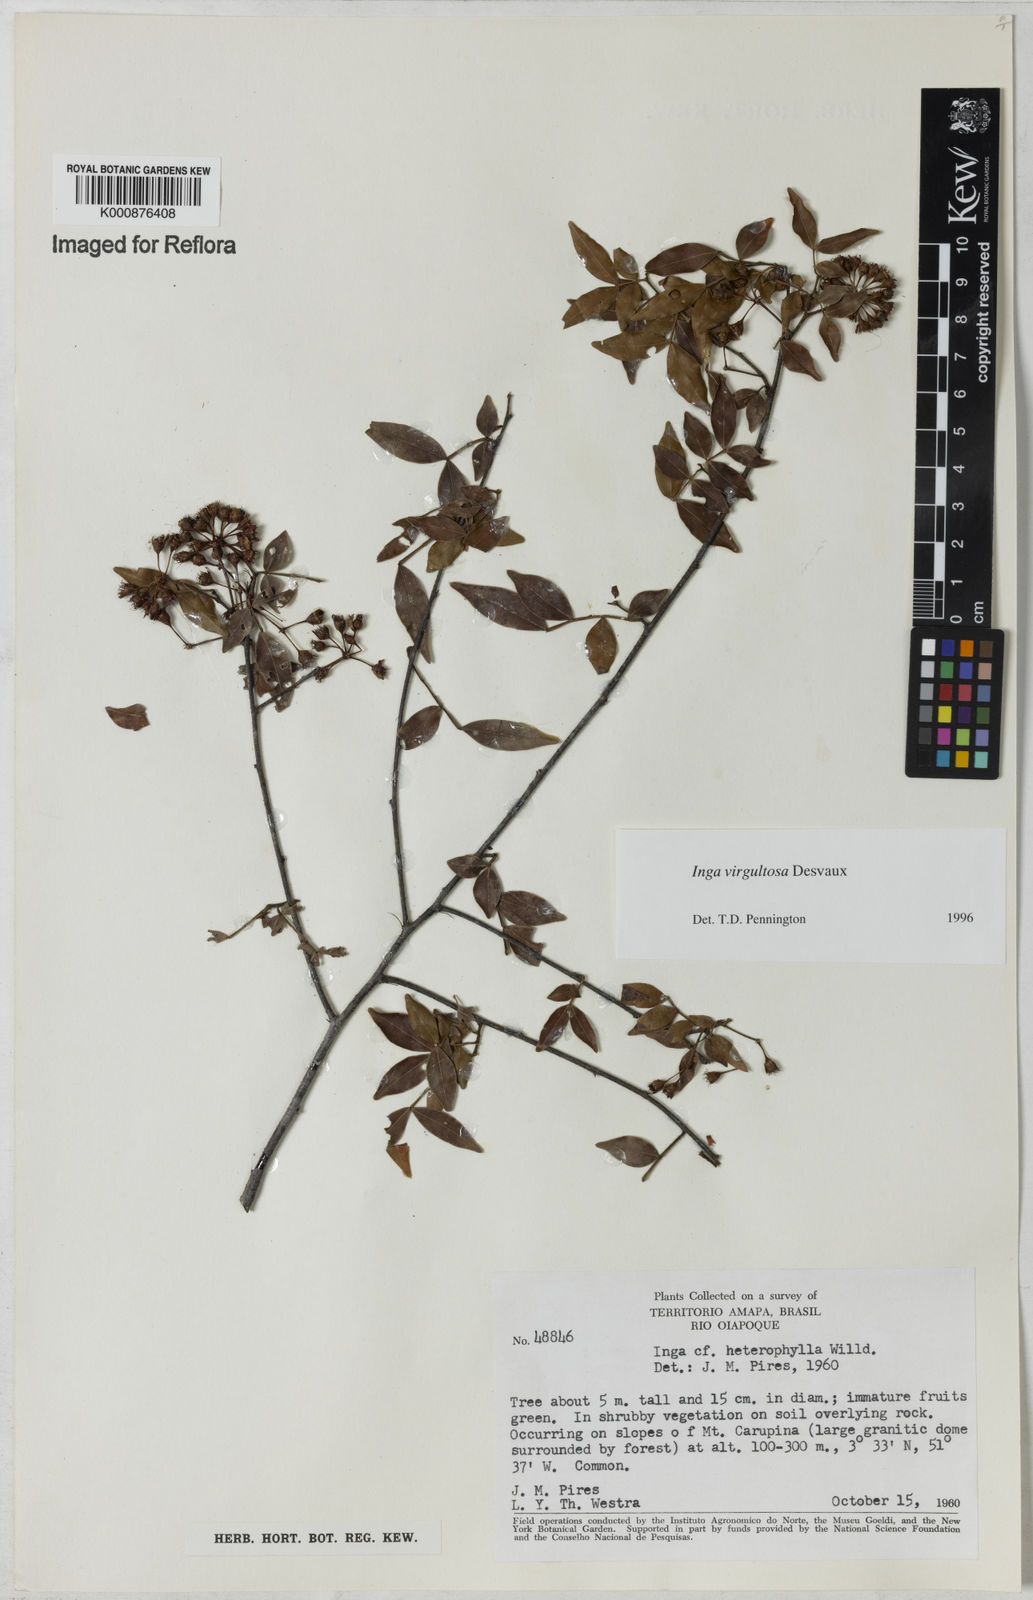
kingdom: Plantae
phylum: Tracheophyta
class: Magnoliopsida
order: Fabales
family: Fabaceae
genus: Inga
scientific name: Inga virgultosa
